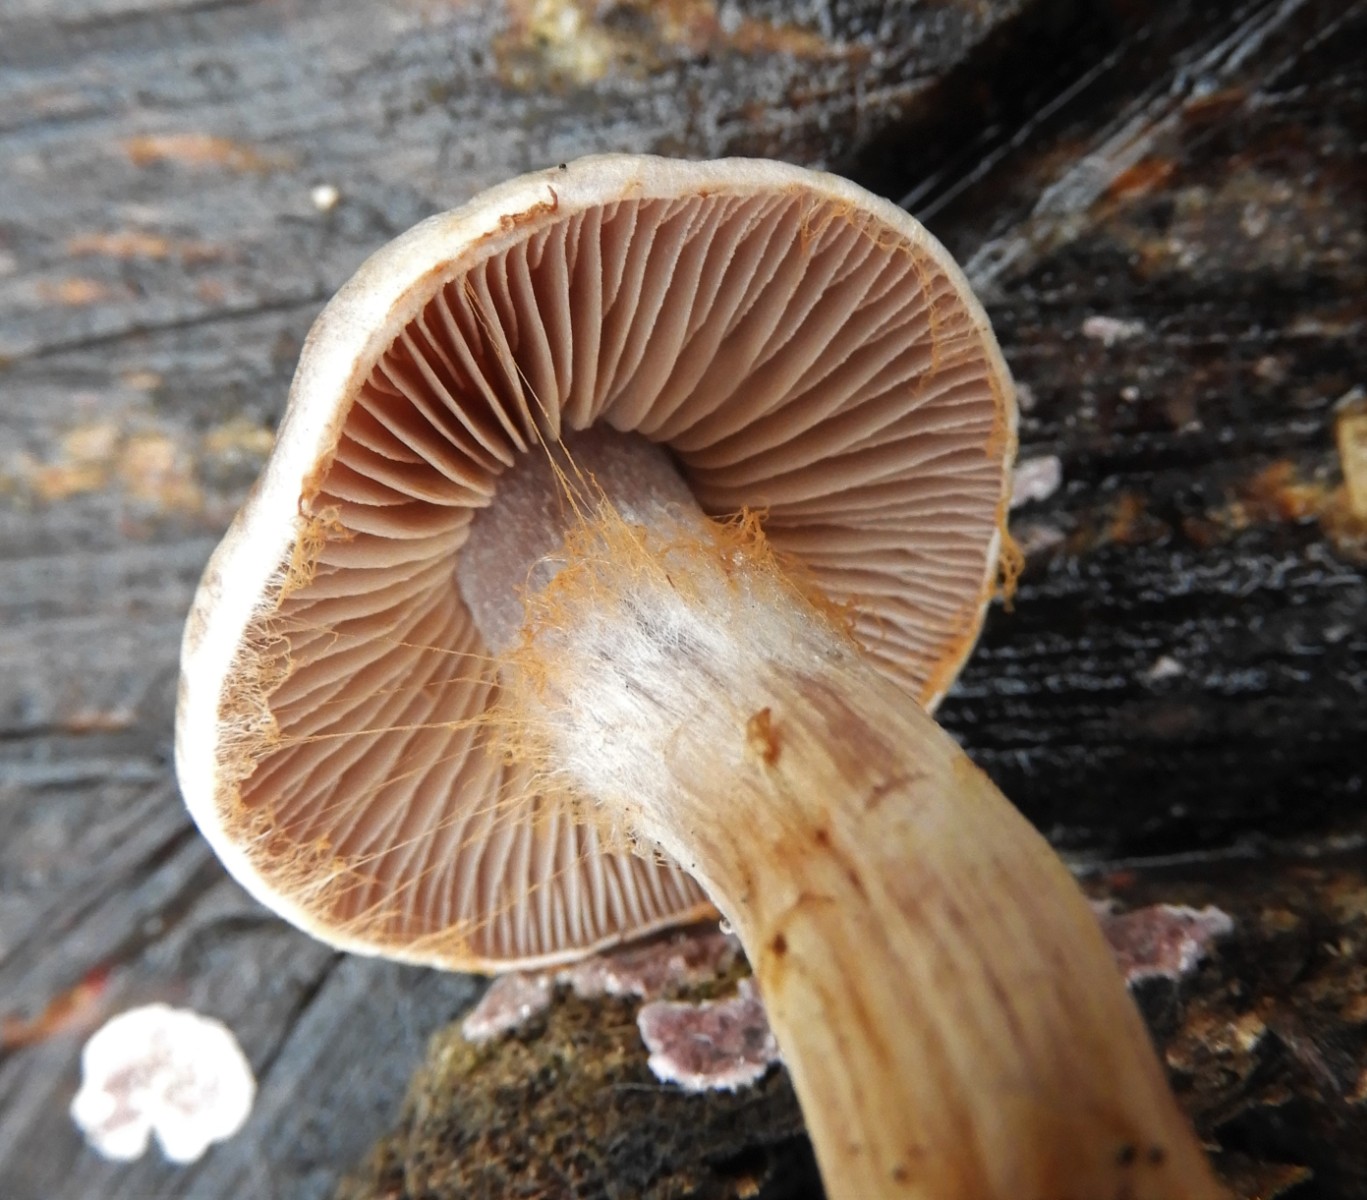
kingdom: Fungi
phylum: Basidiomycota
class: Agaricomycetes
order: Agaricales
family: Cortinariaceae
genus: Cortinarius
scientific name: Cortinarius
